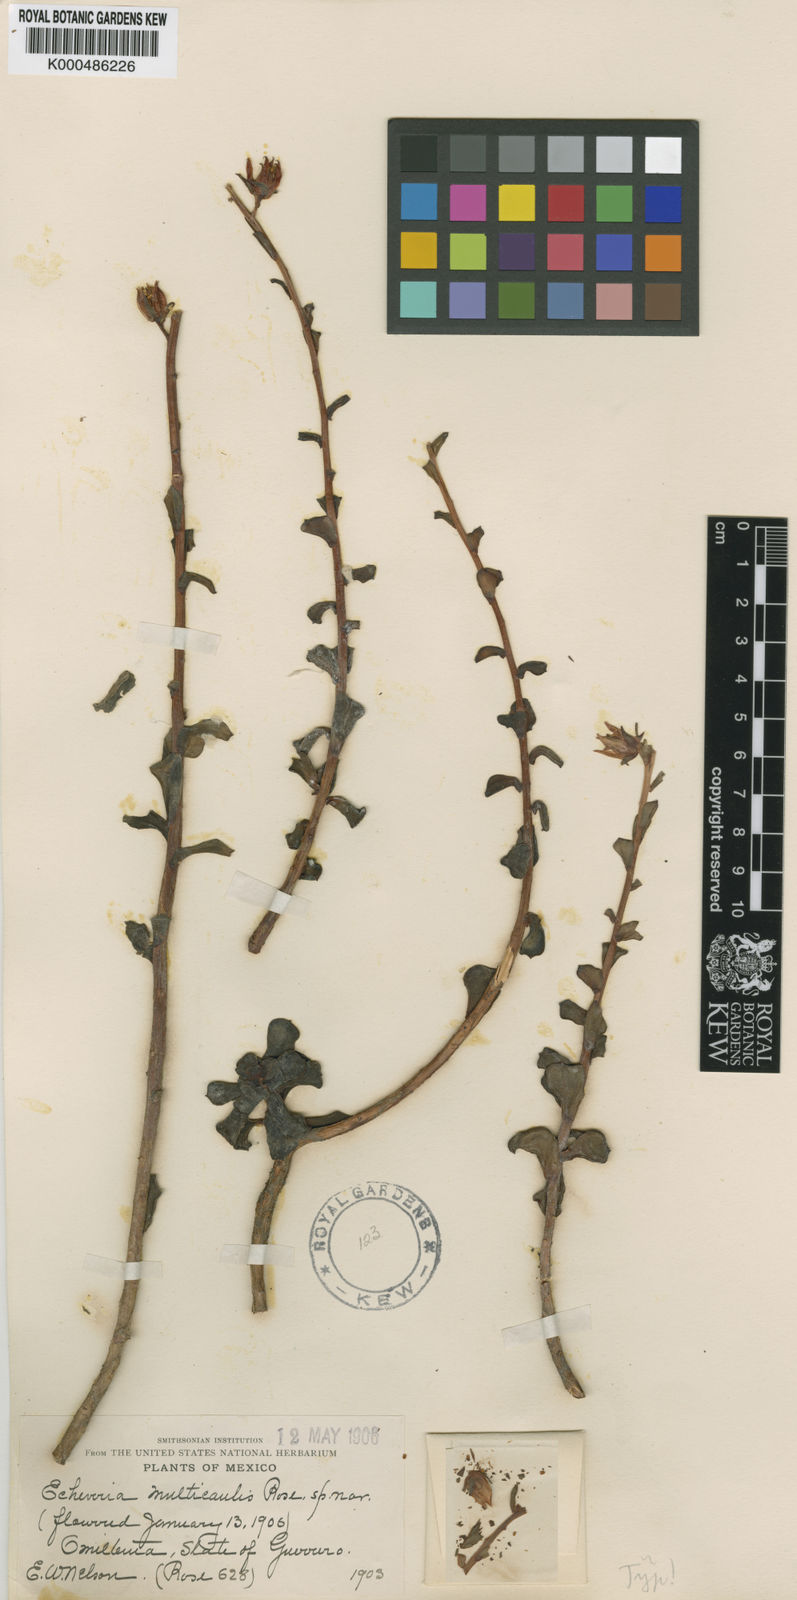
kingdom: Plantae
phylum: Tracheophyta
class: Magnoliopsida
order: Saxifragales
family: Crassulaceae
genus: Echeveria
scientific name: Echeveria multicaulis
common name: Copper-roses
